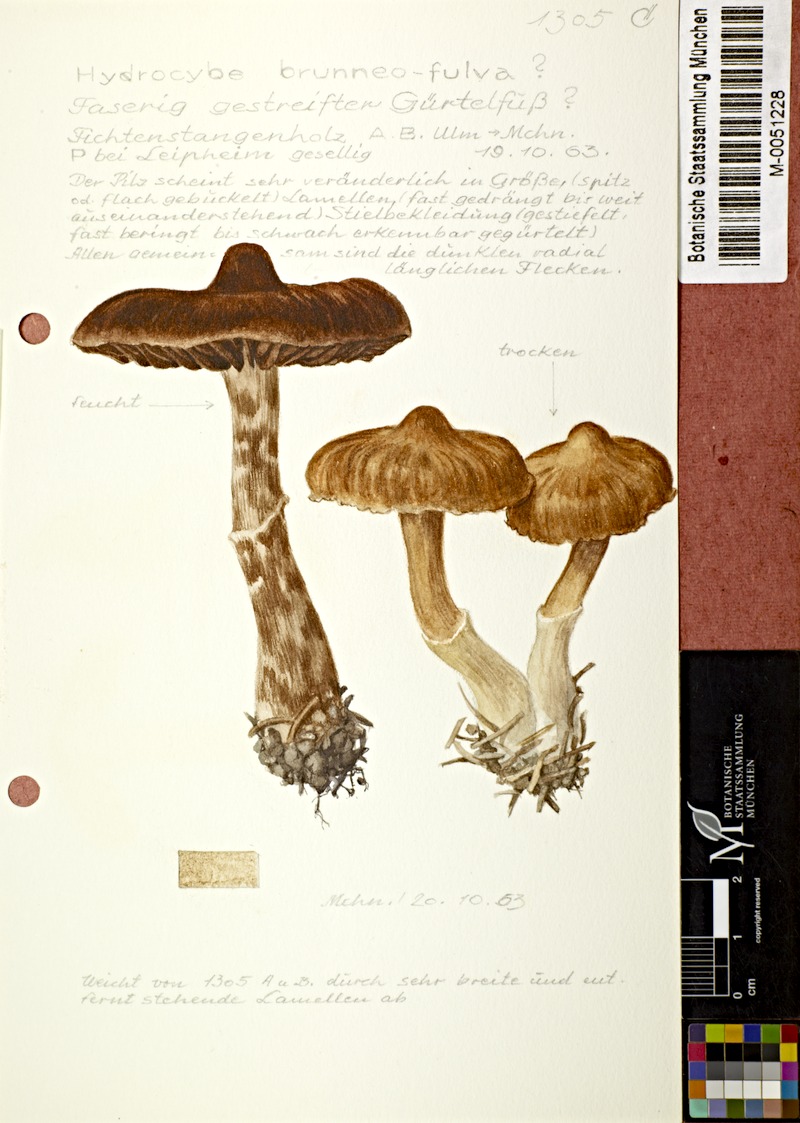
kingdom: Fungi
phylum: Basidiomycota
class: Agaricomycetes
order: Agaricales
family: Cortinariaceae
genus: Cortinarius
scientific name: Cortinarius brunneofulvus
